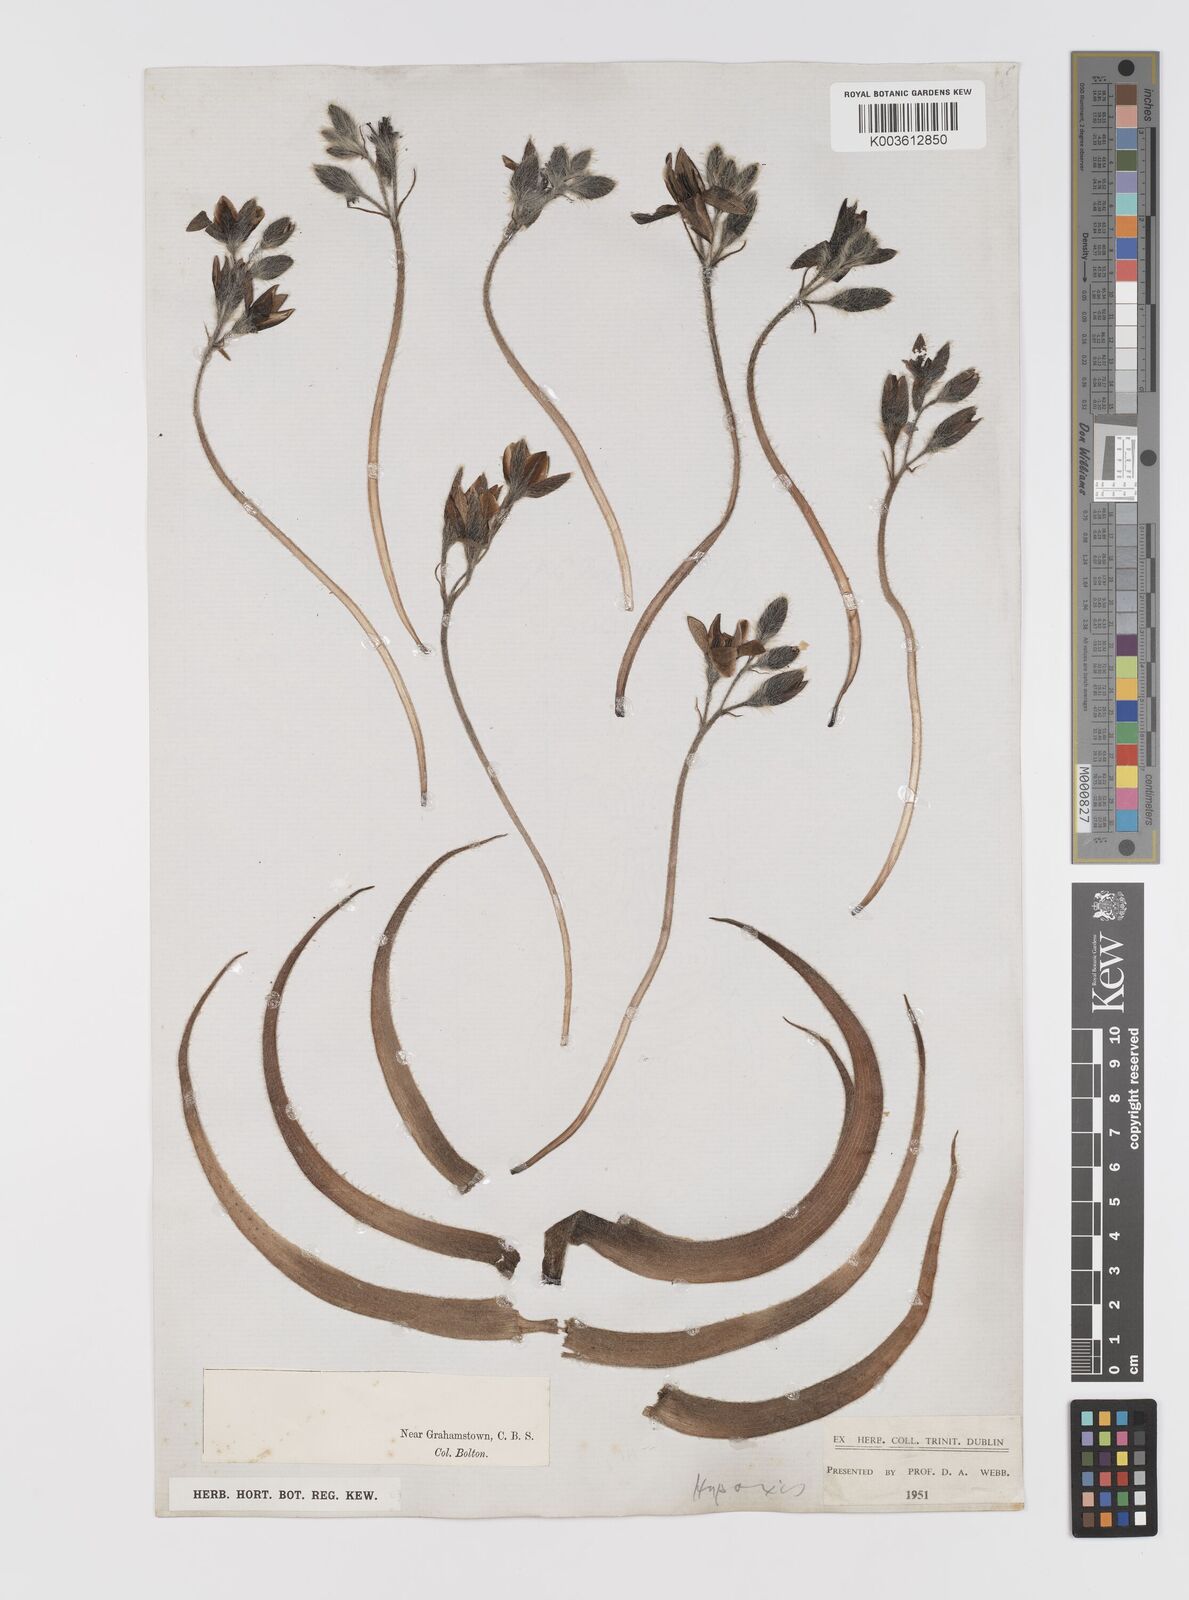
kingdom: Plantae
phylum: Tracheophyta
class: Liliopsida
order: Asparagales
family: Hypoxidaceae
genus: Hypoxis
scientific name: Hypoxis hemerocallidea
